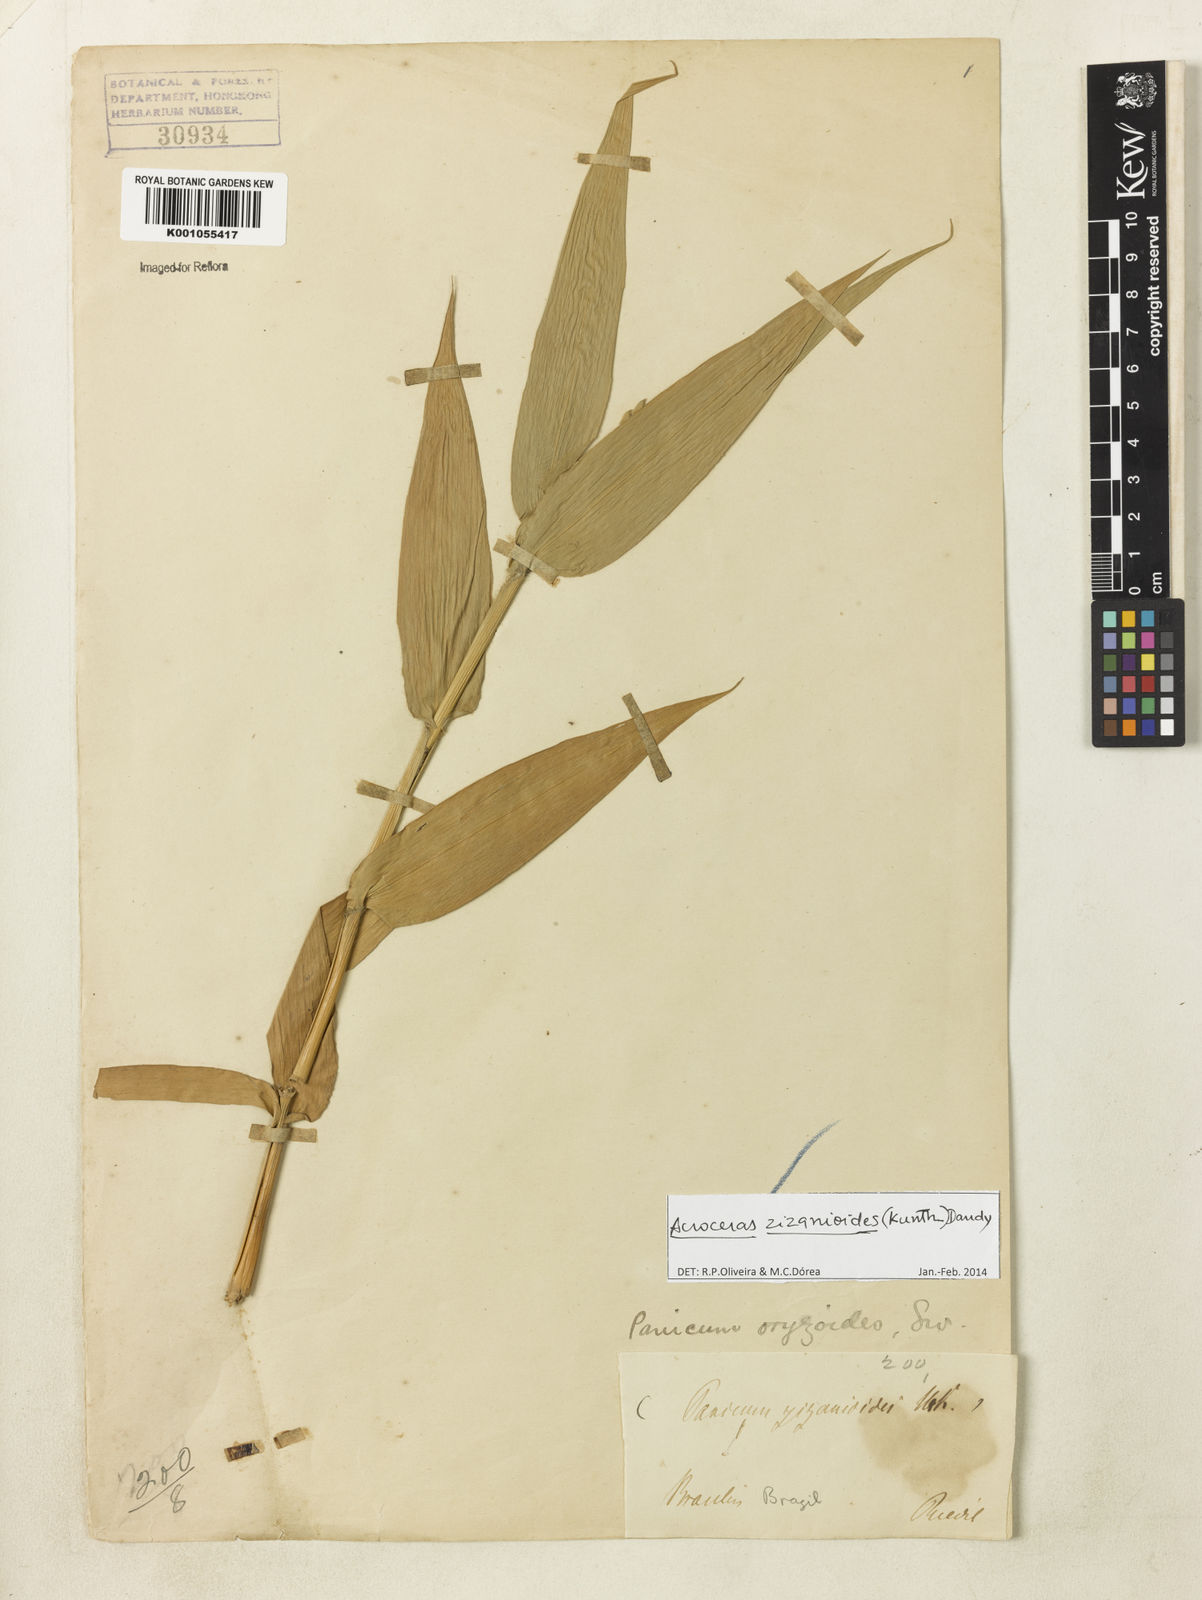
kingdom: Plantae
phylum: Tracheophyta
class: Liliopsida
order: Poales
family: Poaceae
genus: Acroceras
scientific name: Acroceras zizanioides
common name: Oat grass
